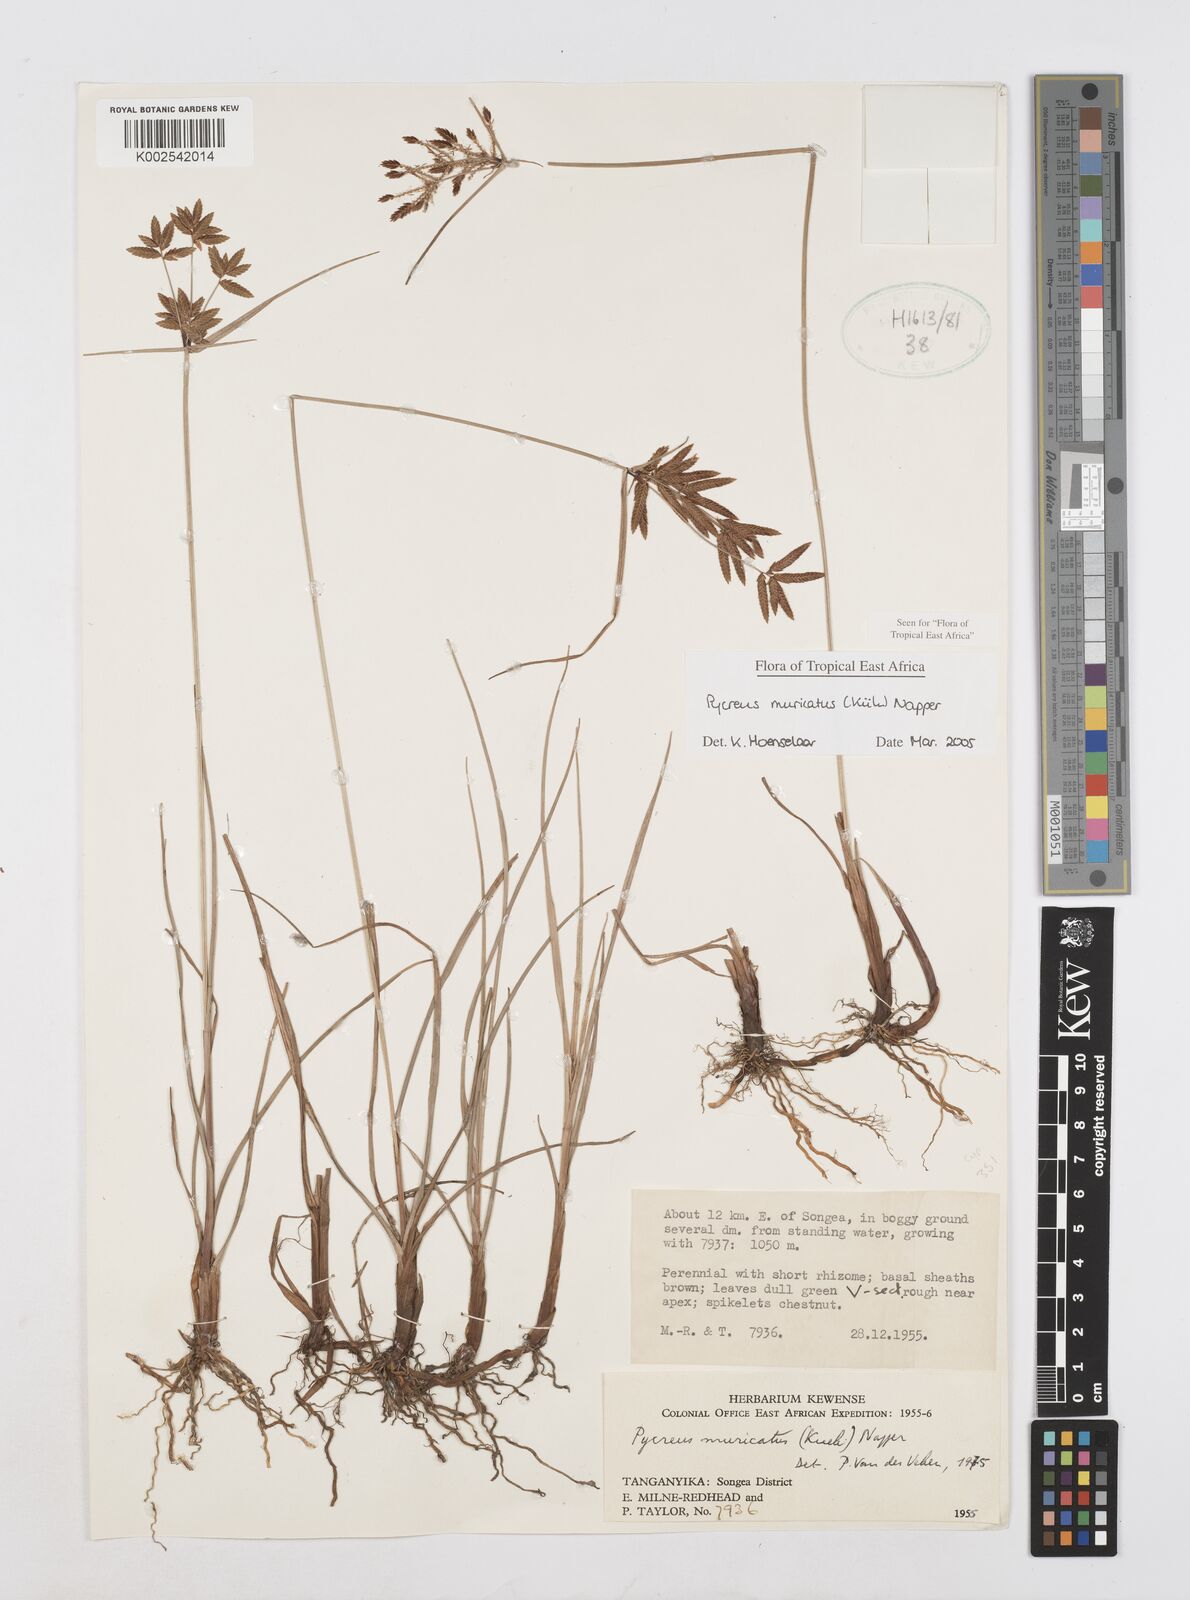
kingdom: Plantae
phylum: Tracheophyta
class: Liliopsida
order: Poales
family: Cyperaceae
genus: Cyperus
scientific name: Cyperus nigricans
